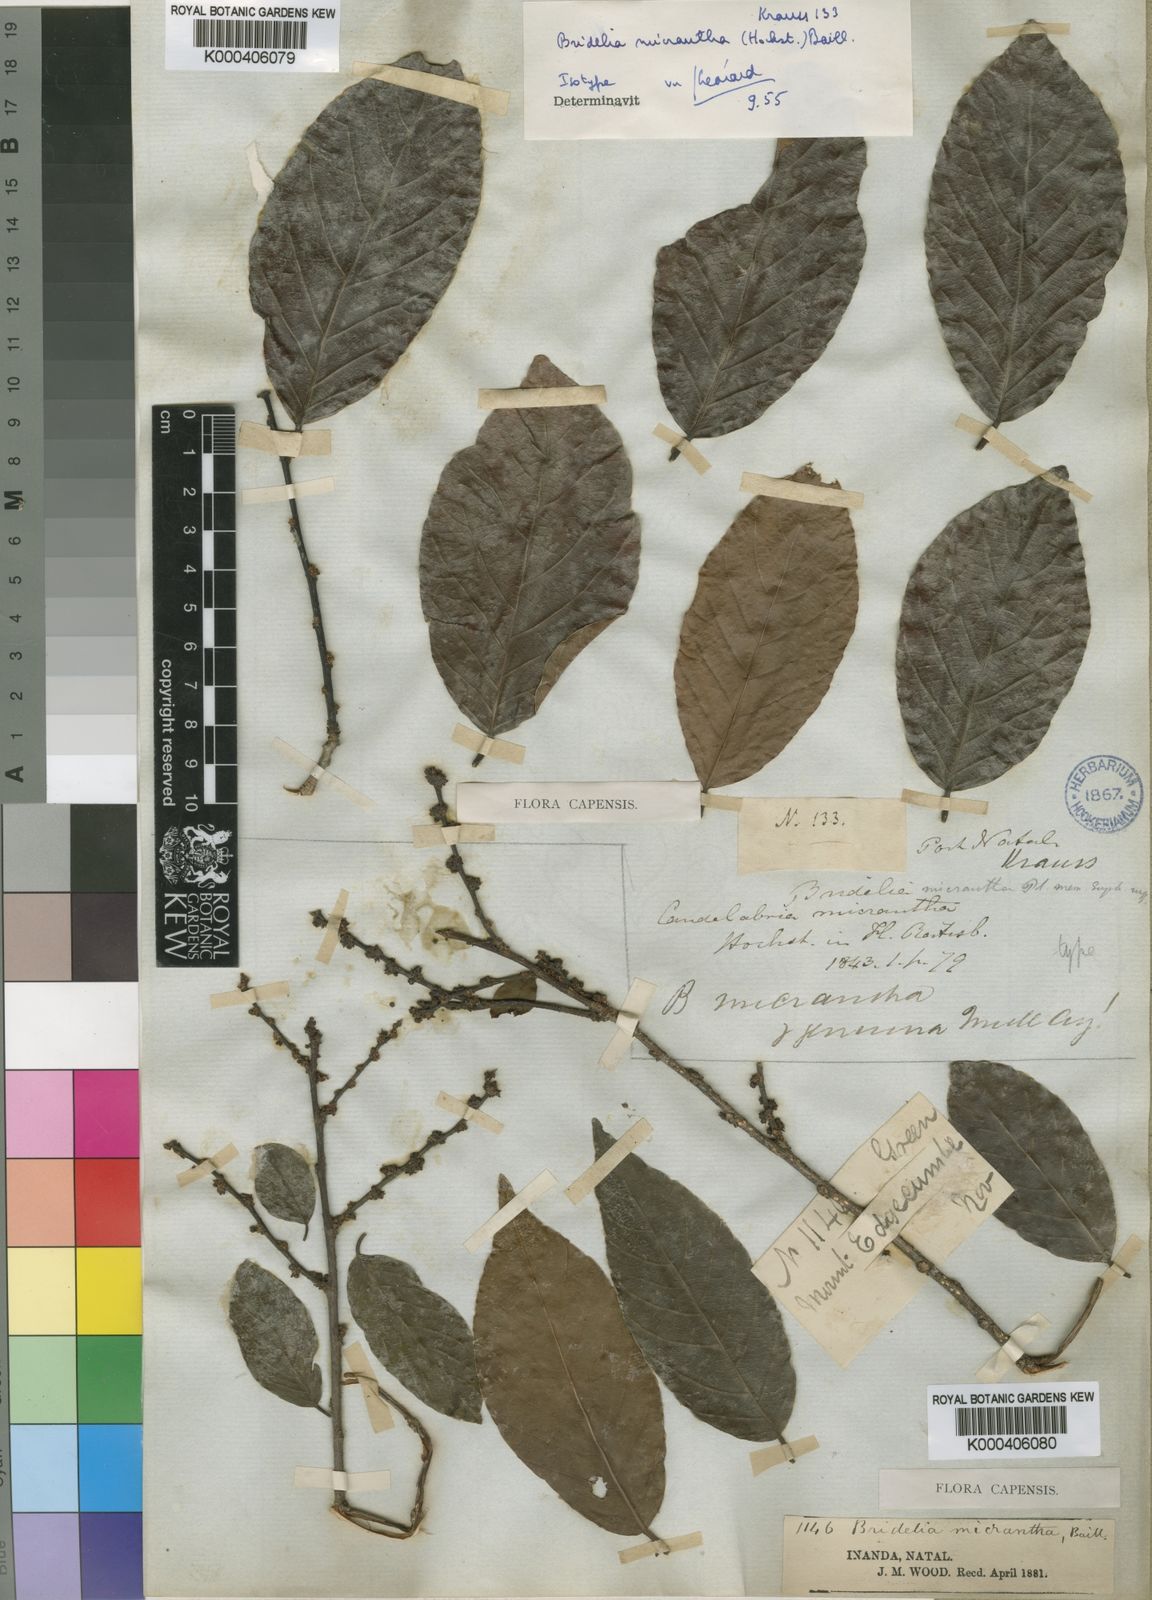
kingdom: Plantae
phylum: Tracheophyta
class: Magnoliopsida
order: Malpighiales
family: Phyllanthaceae
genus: Bridelia
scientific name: Bridelia micrantha
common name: Bridelia
